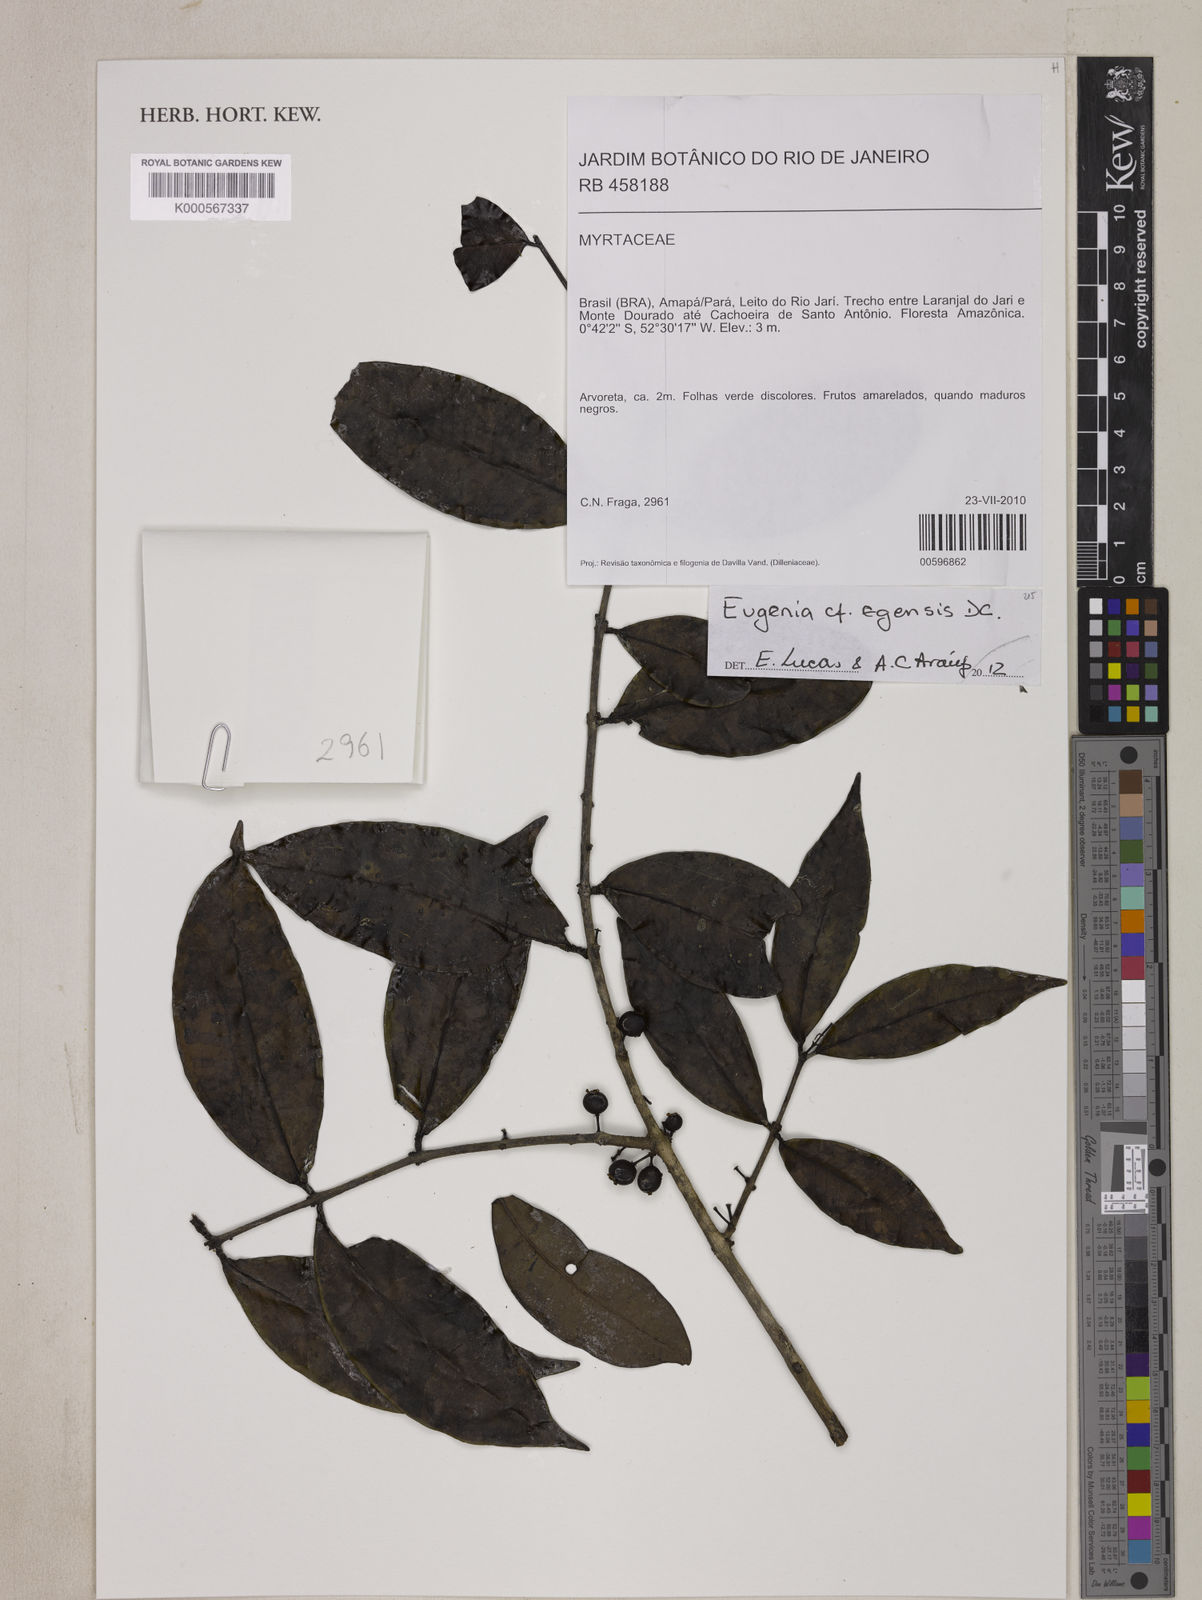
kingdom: Plantae
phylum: Tracheophyta
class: Magnoliopsida
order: Myrtales
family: Myrtaceae
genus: Eugenia
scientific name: Eugenia egensis
